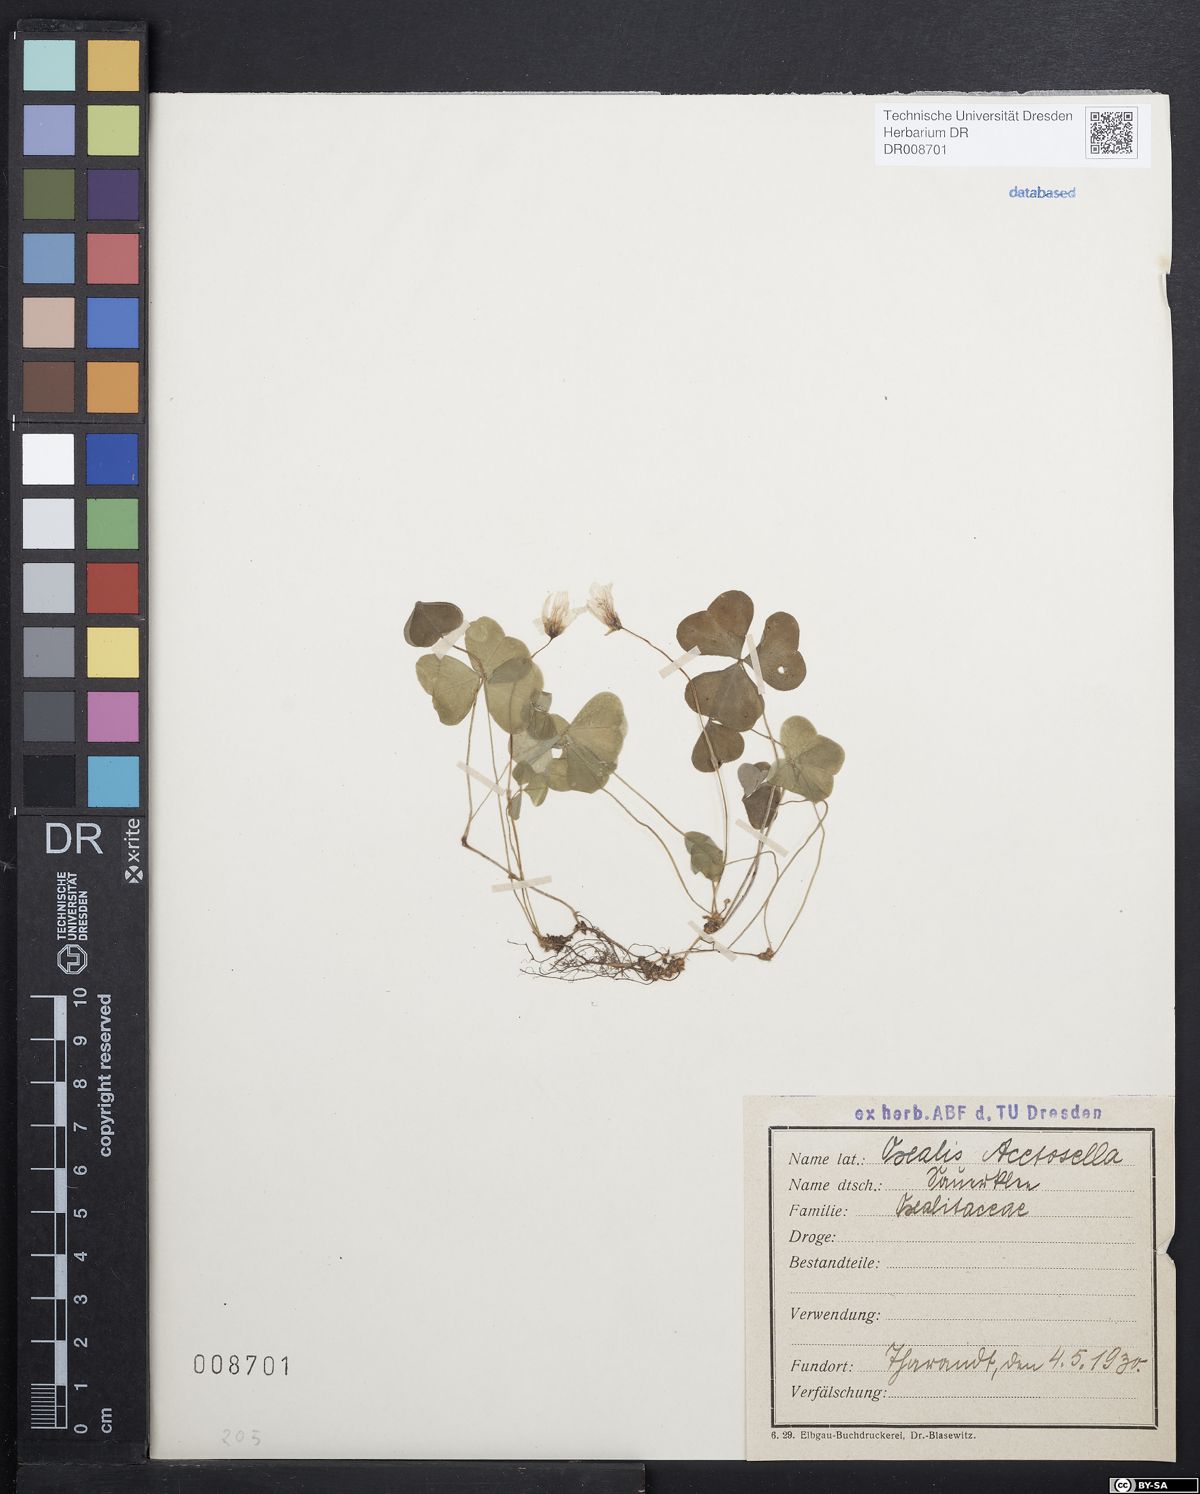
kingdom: Plantae
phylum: Tracheophyta
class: Magnoliopsida
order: Oxalidales
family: Oxalidaceae
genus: Oxalis
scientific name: Oxalis acetosella
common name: Wood-sorrel
